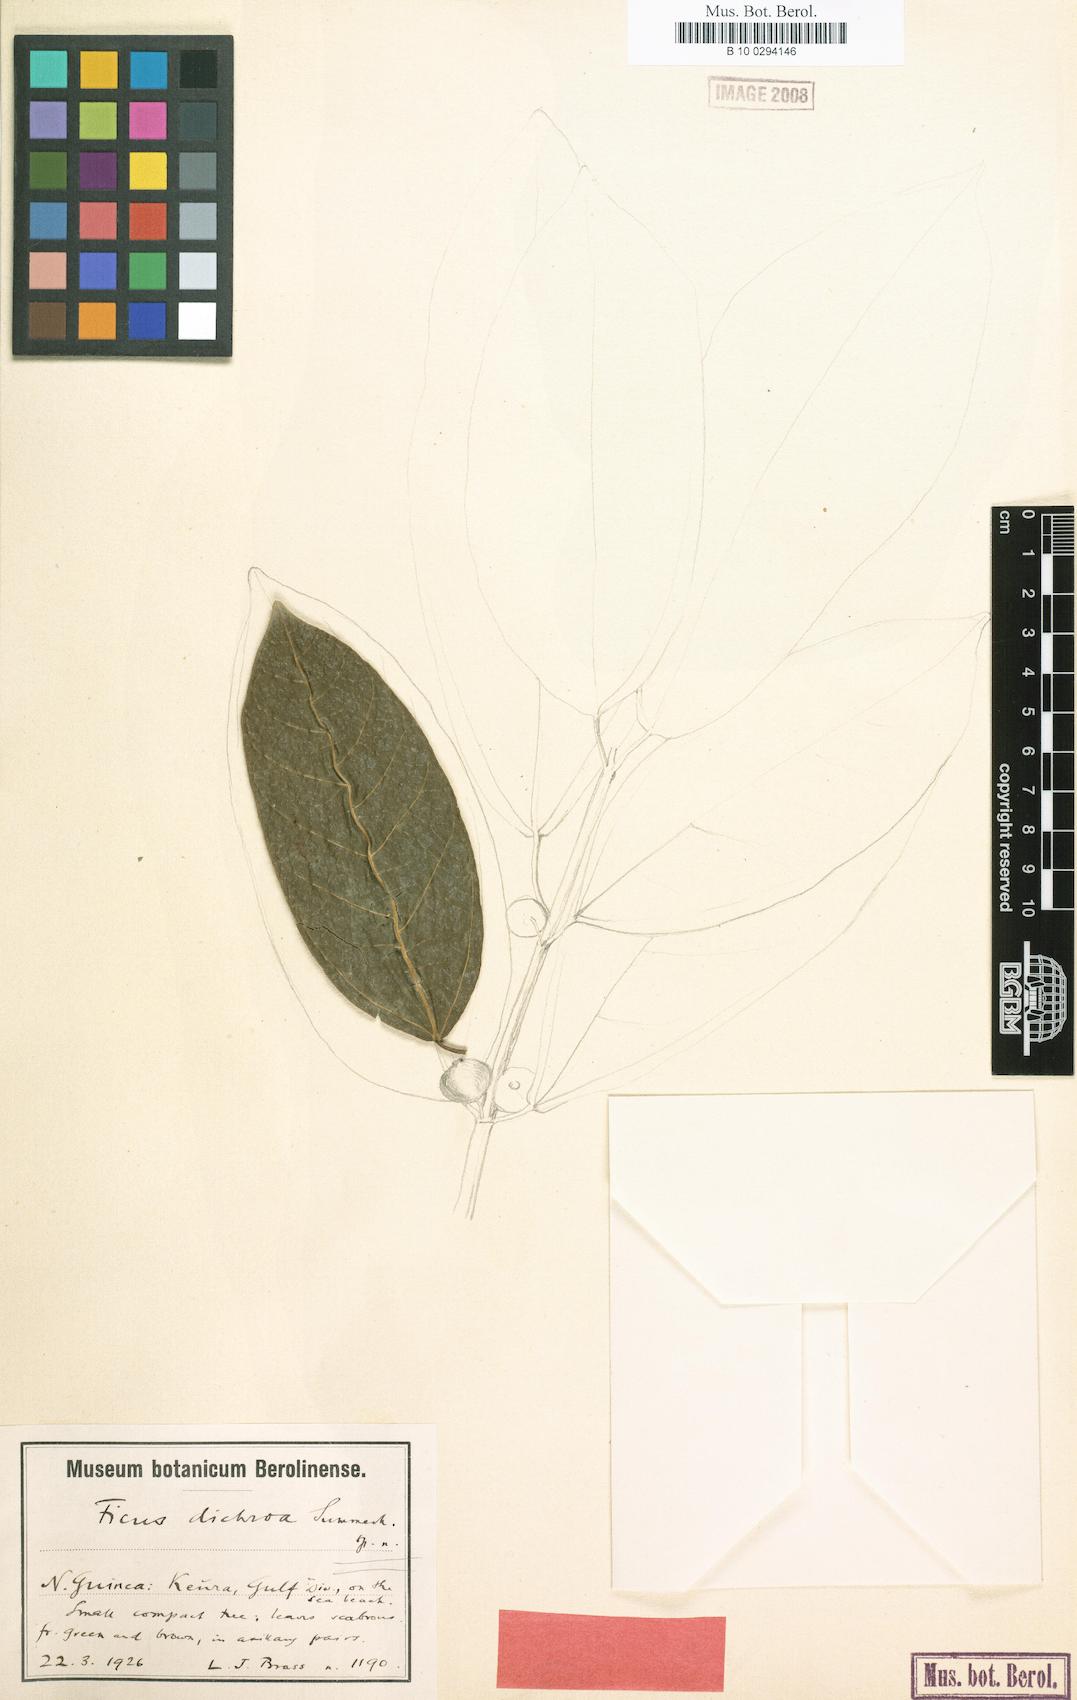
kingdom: Plantae
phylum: Tracheophyta
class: Magnoliopsida
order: Rosales
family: Moraceae
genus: Ficus
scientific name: Ficus opposita
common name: Figwood
